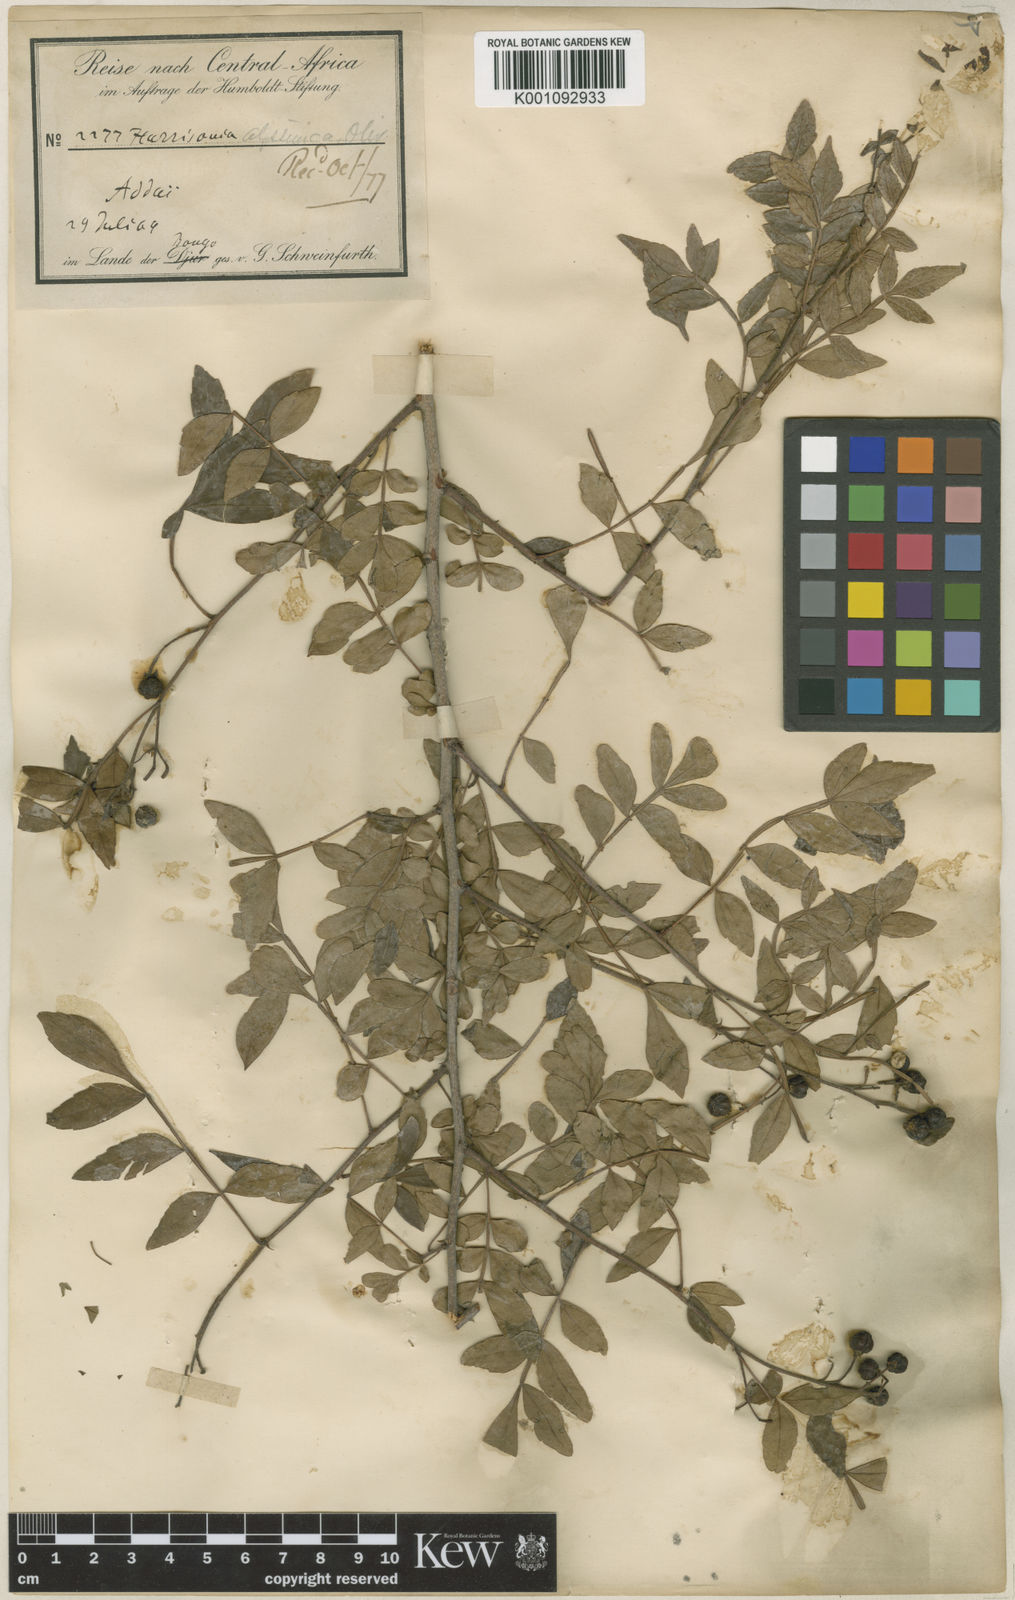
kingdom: Plantae
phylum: Tracheophyta
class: Magnoliopsida
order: Sapindales
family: Rutaceae
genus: Harrisonia
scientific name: Harrisonia abyssinica
